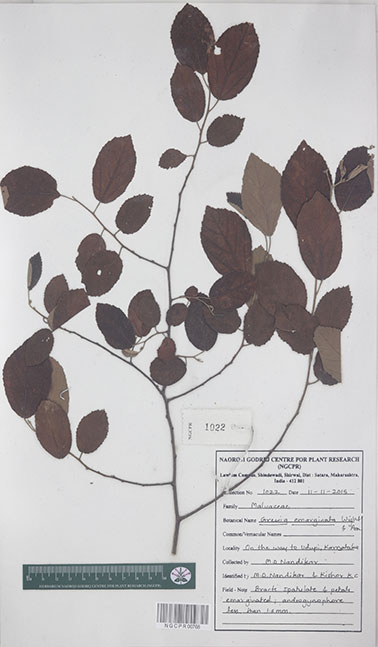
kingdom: Plantae
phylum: Tracheophyta
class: Magnoliopsida
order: Malvales
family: Malvaceae
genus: Grewia
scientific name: Grewia oppositifolia
